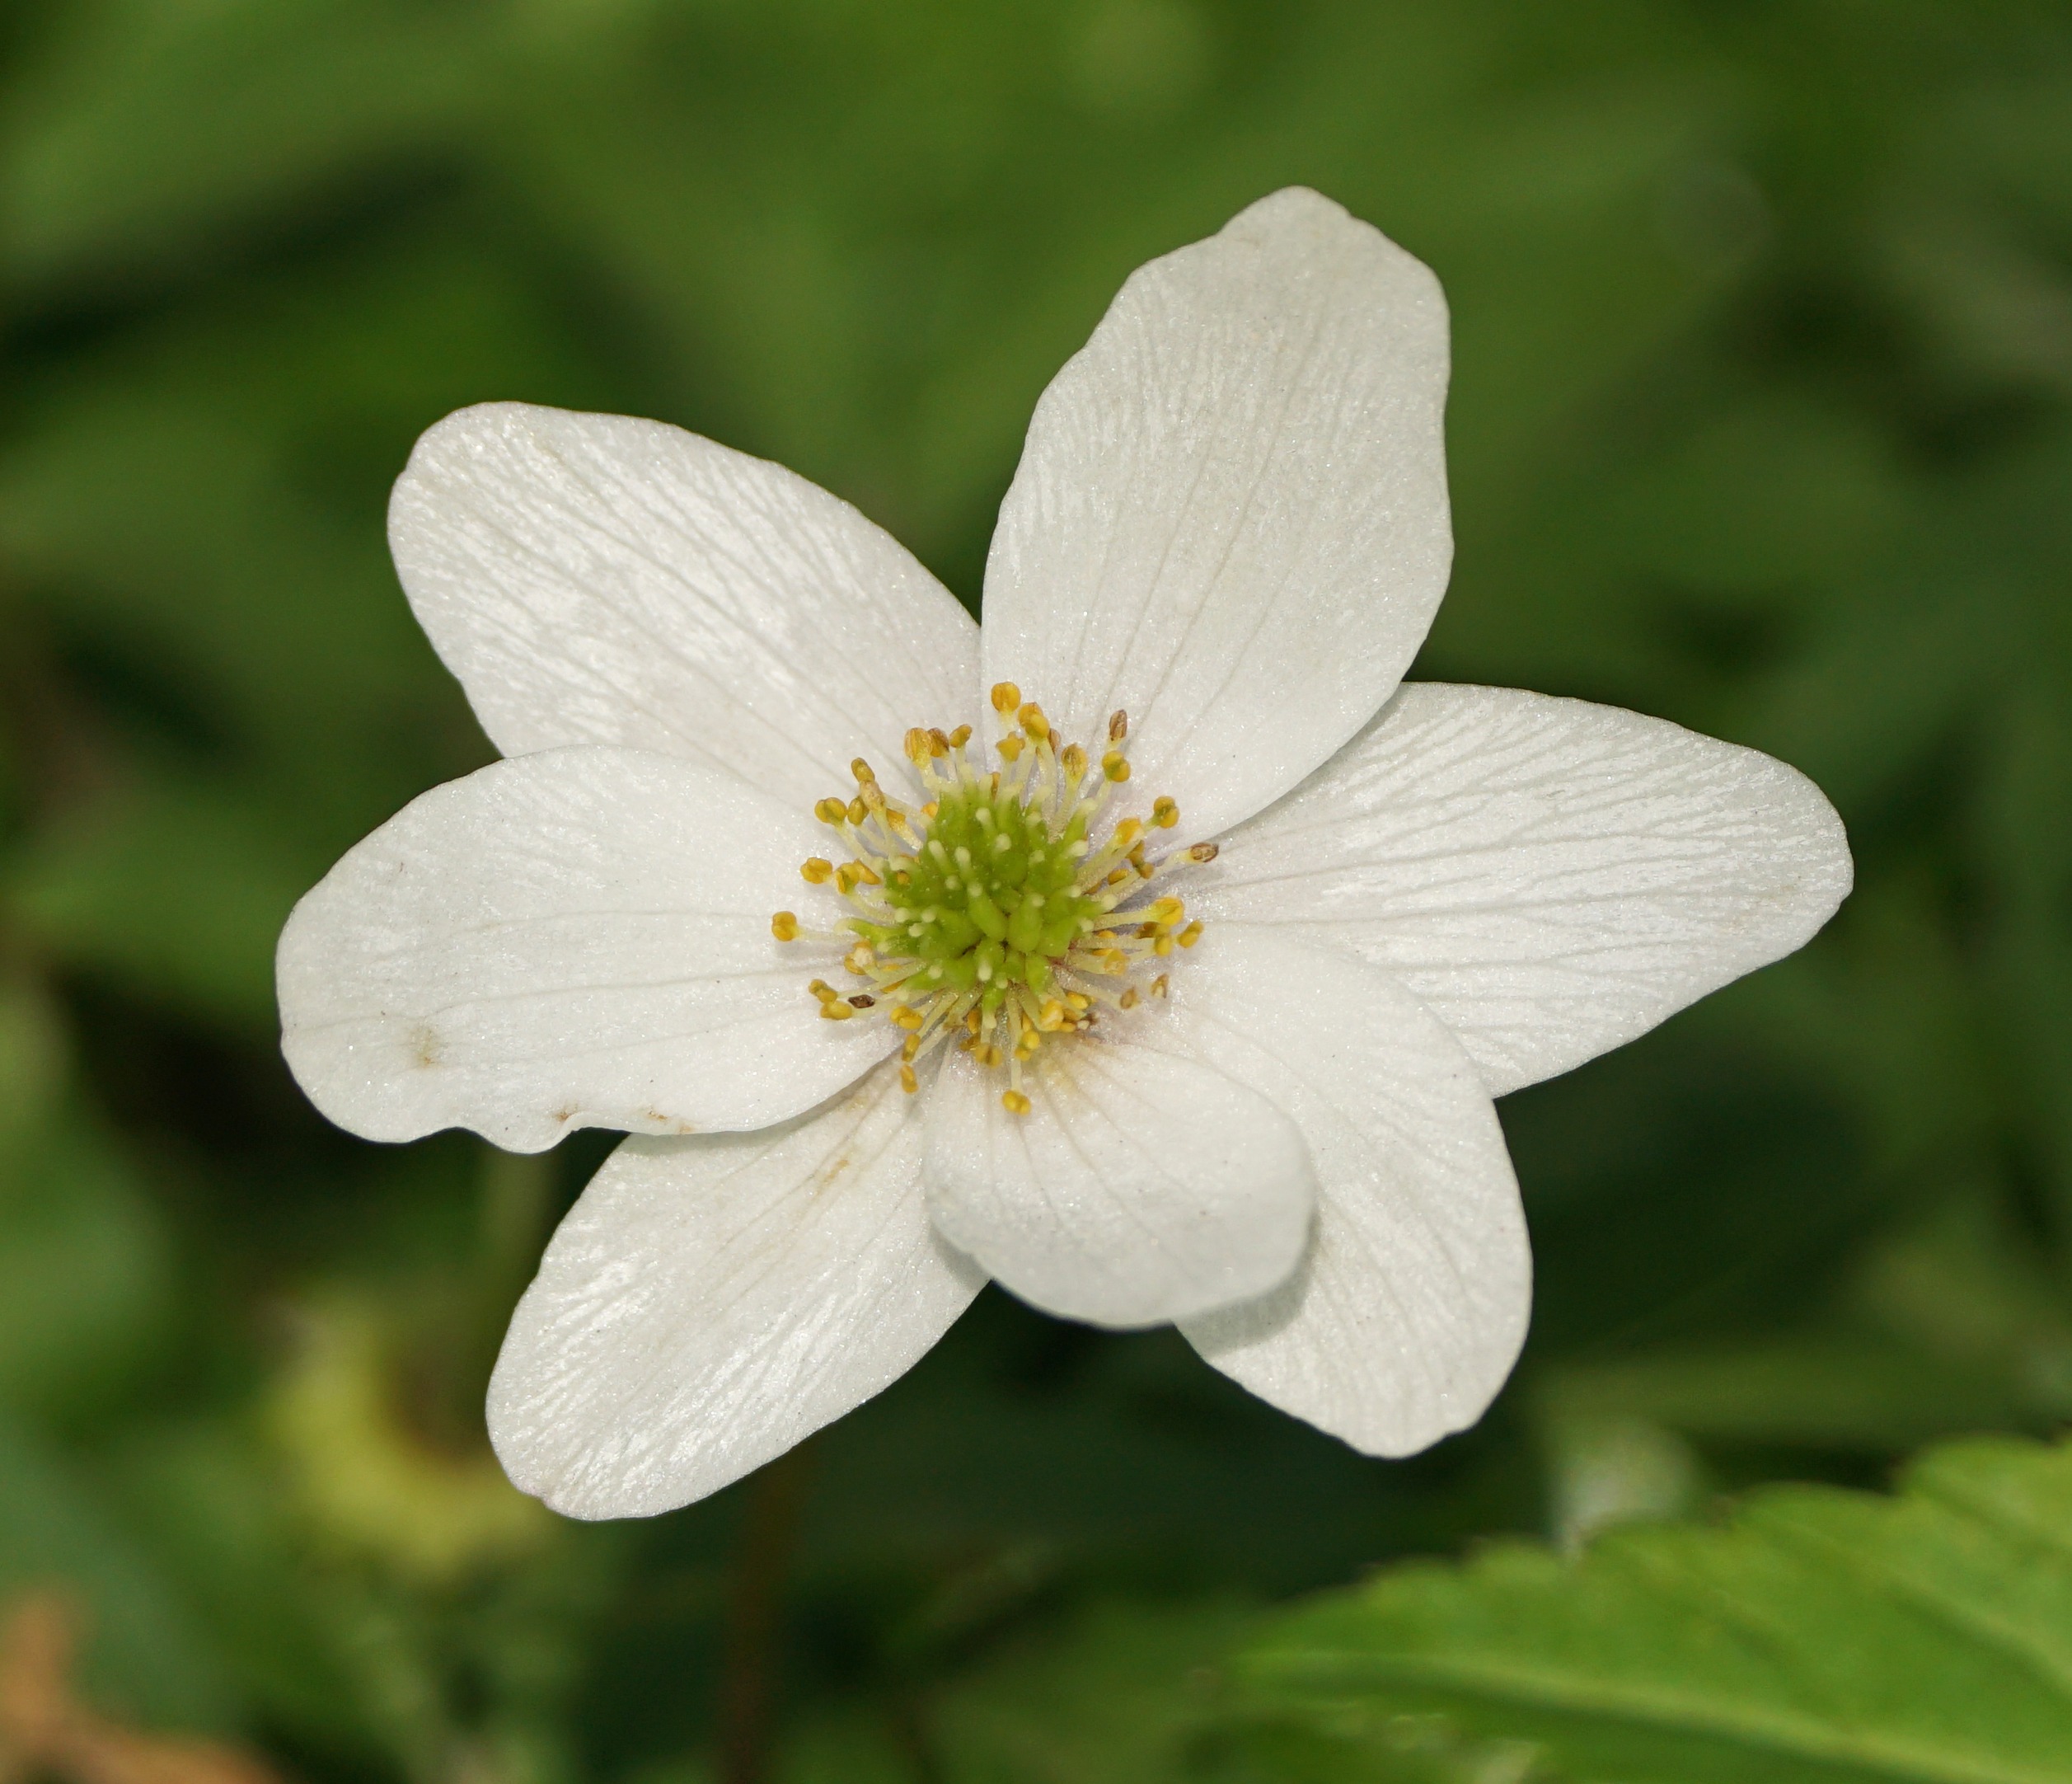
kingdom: Plantae
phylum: Tracheophyta
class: Magnoliopsida
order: Ranunculales
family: Ranunculaceae
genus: Anemone
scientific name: Anemone nemorosa
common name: Hvid anemone
